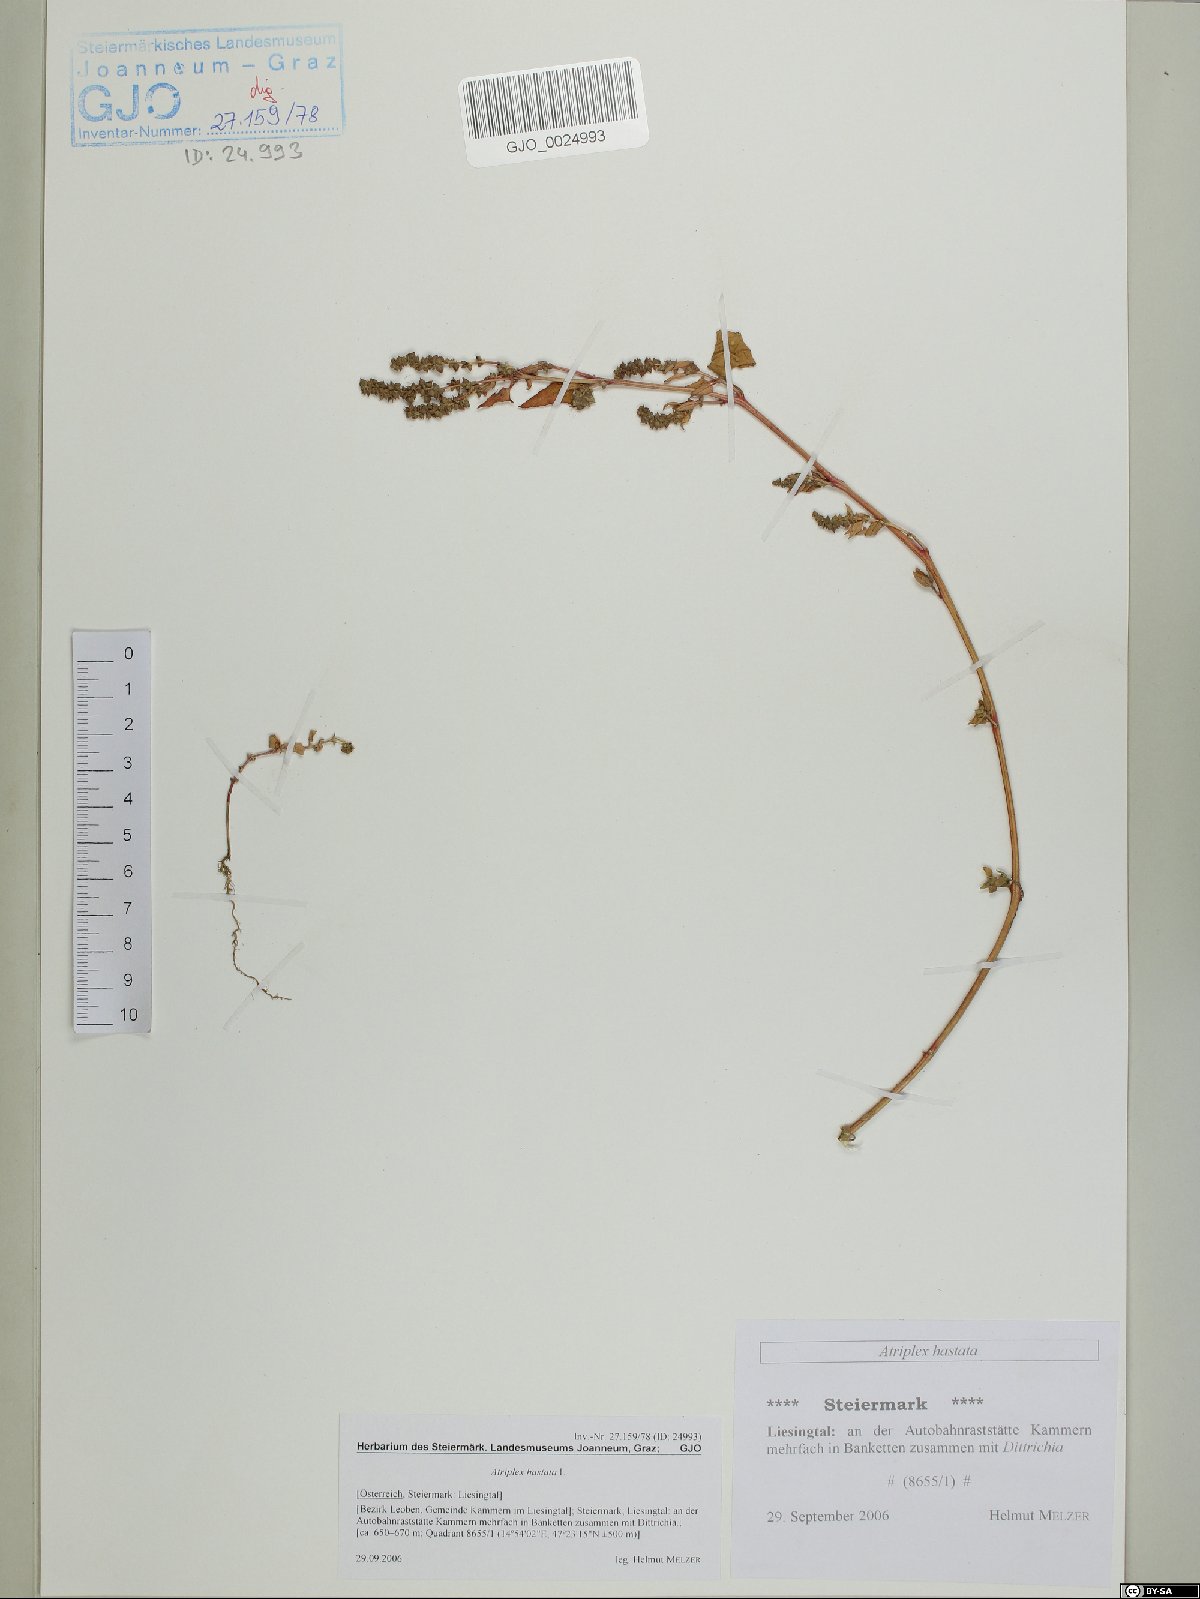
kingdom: Plantae
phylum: Tracheophyta
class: Magnoliopsida
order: Caryophyllales
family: Amaranthaceae
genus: Atriplex
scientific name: Atriplex calotheca
